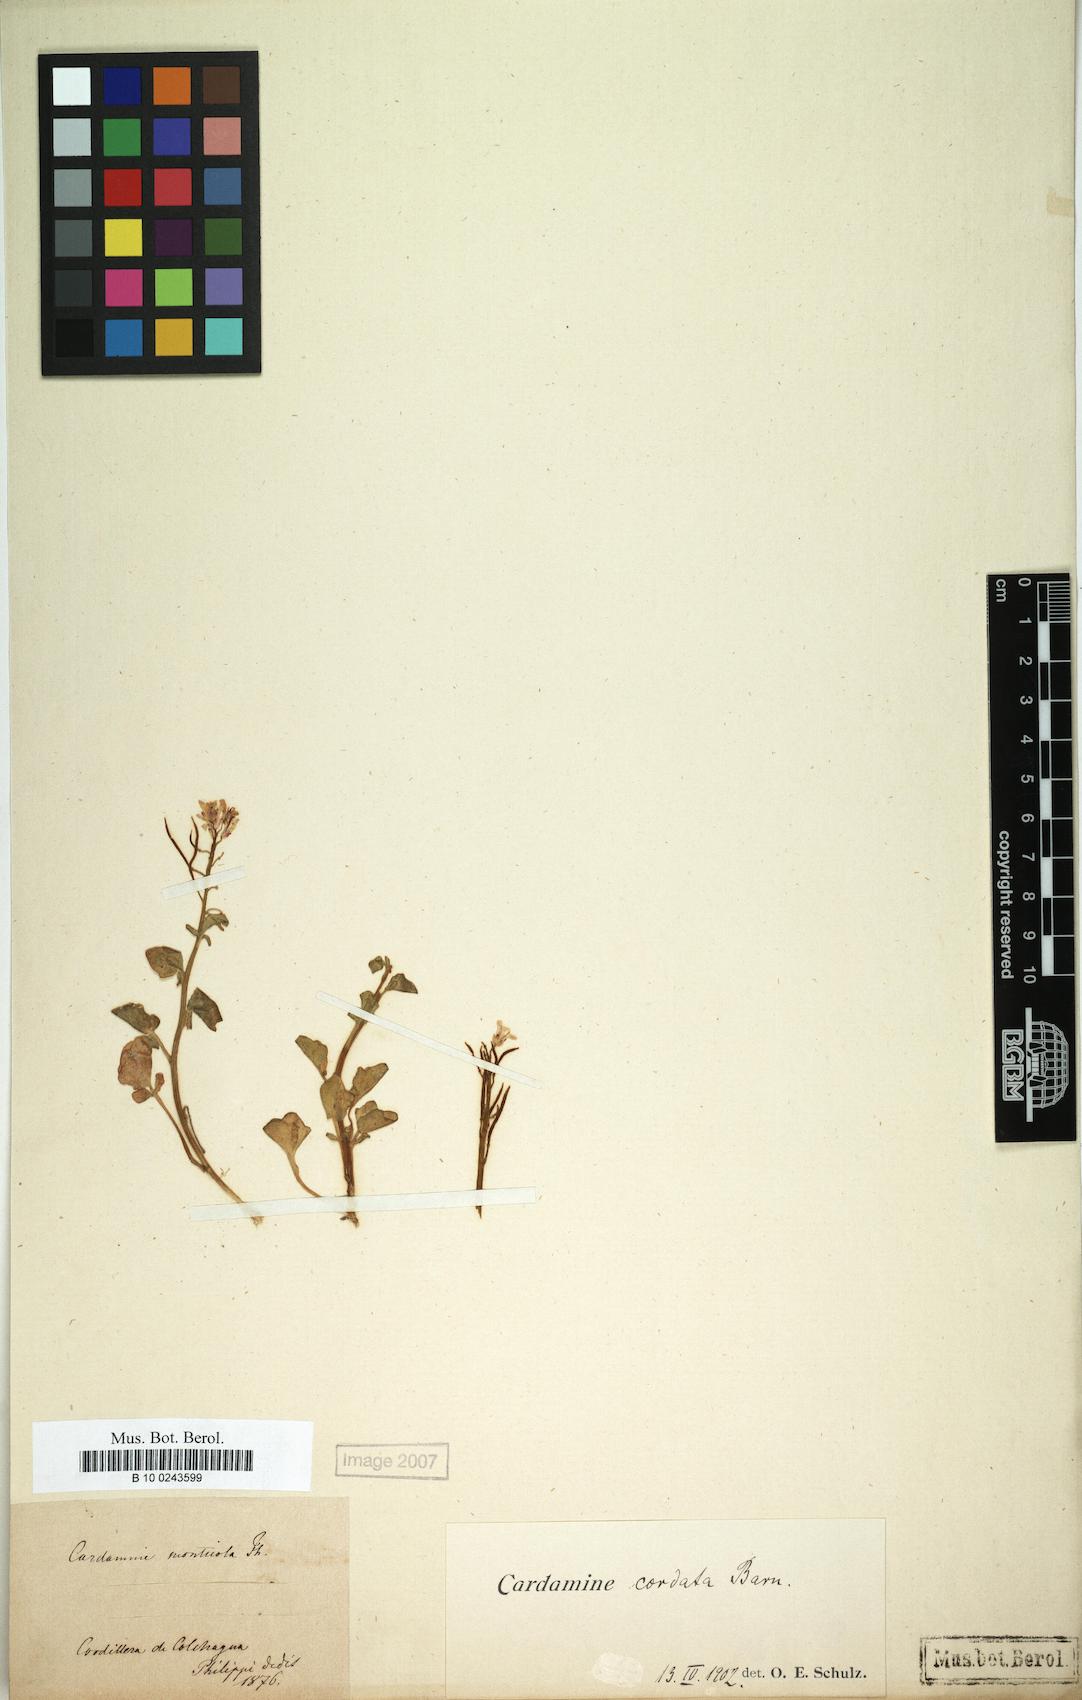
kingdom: Plantae
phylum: Tracheophyta
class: Magnoliopsida
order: Brassicales
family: Brassicaceae
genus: Cardamine
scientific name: Cardamine cordata
